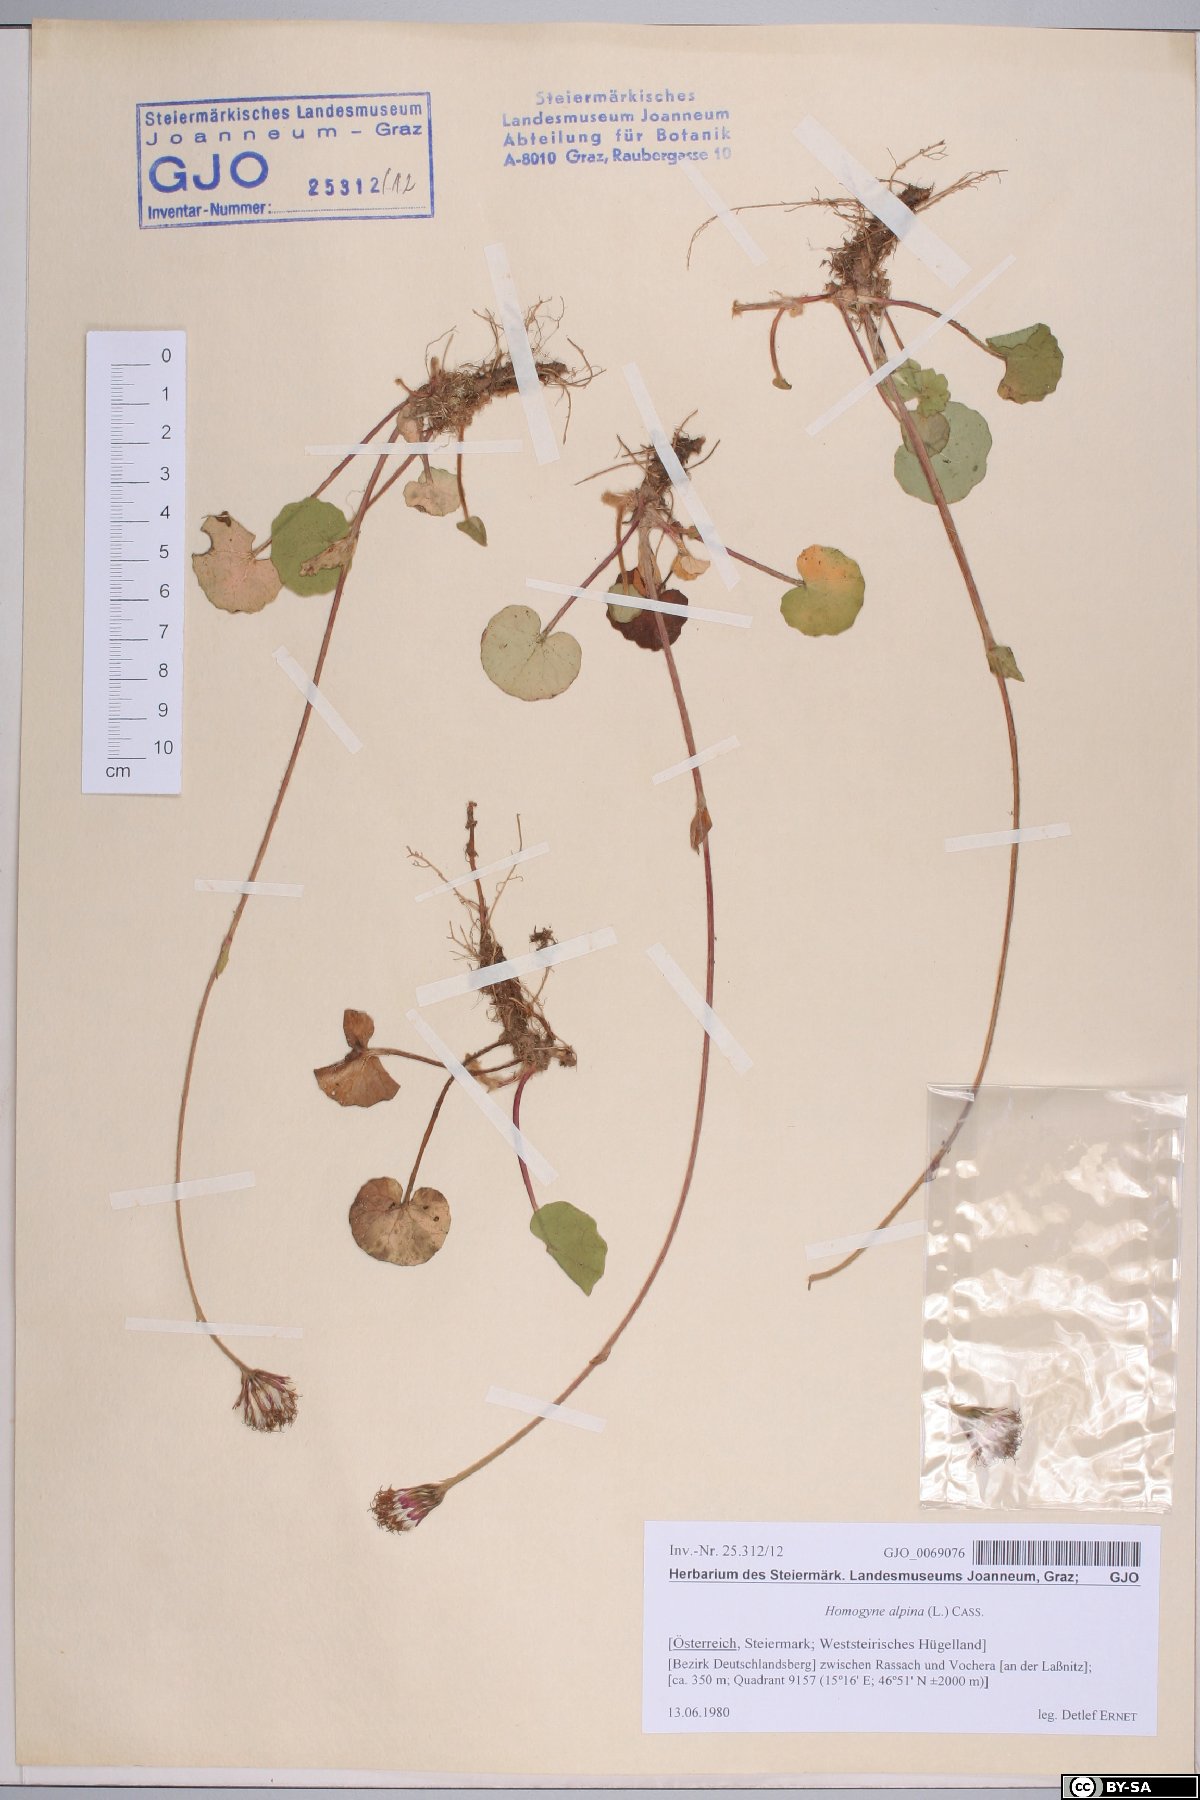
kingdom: Plantae
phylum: Tracheophyta
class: Magnoliopsida
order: Asterales
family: Asteraceae
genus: Homogyne
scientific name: Homogyne alpina
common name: Purple colt's-foot
